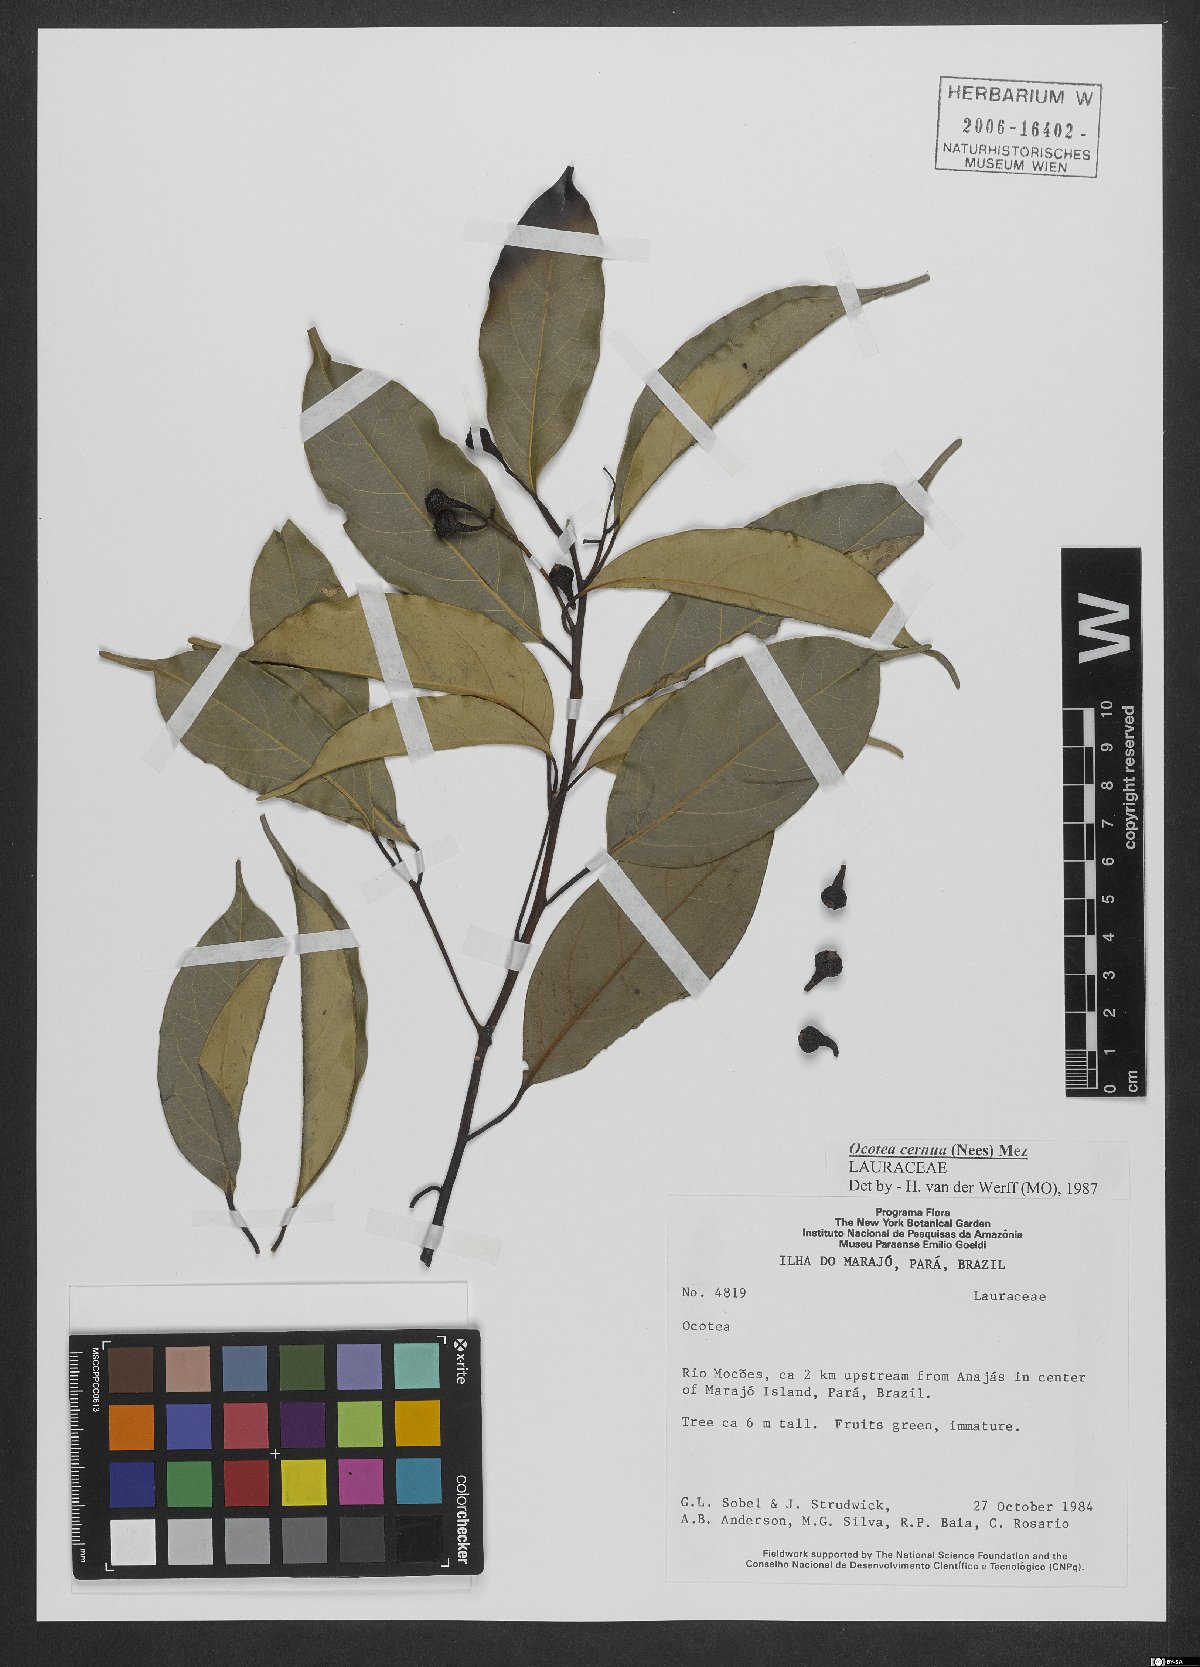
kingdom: Plantae
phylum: Tracheophyta
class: Magnoliopsida
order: Laurales
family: Lauraceae
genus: Ocotea
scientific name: Ocotea leptobotra
